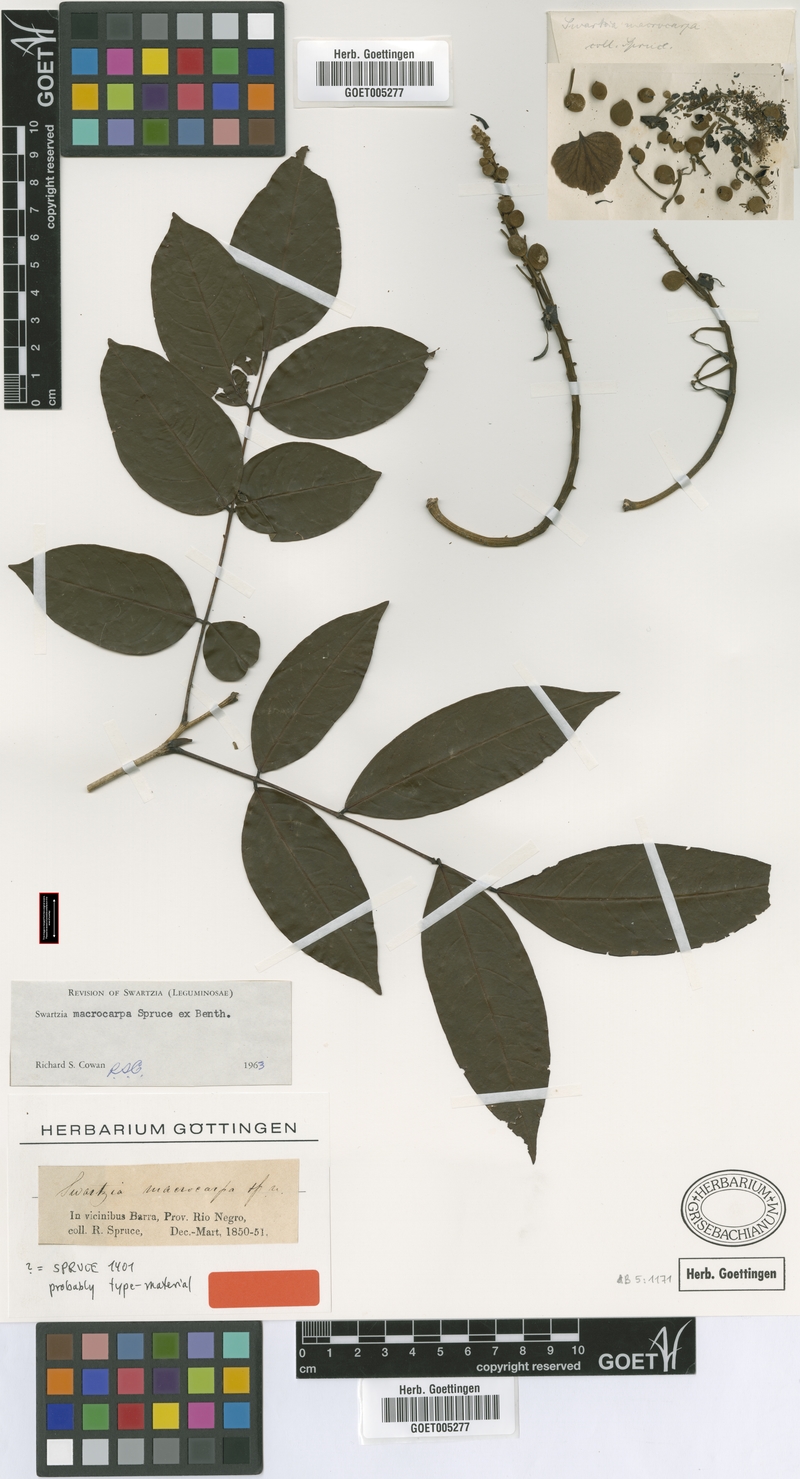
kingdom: Plantae
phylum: Tracheophyta
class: Magnoliopsida
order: Fabales
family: Fabaceae
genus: Swartzia
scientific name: Swartzia macrocarpa
